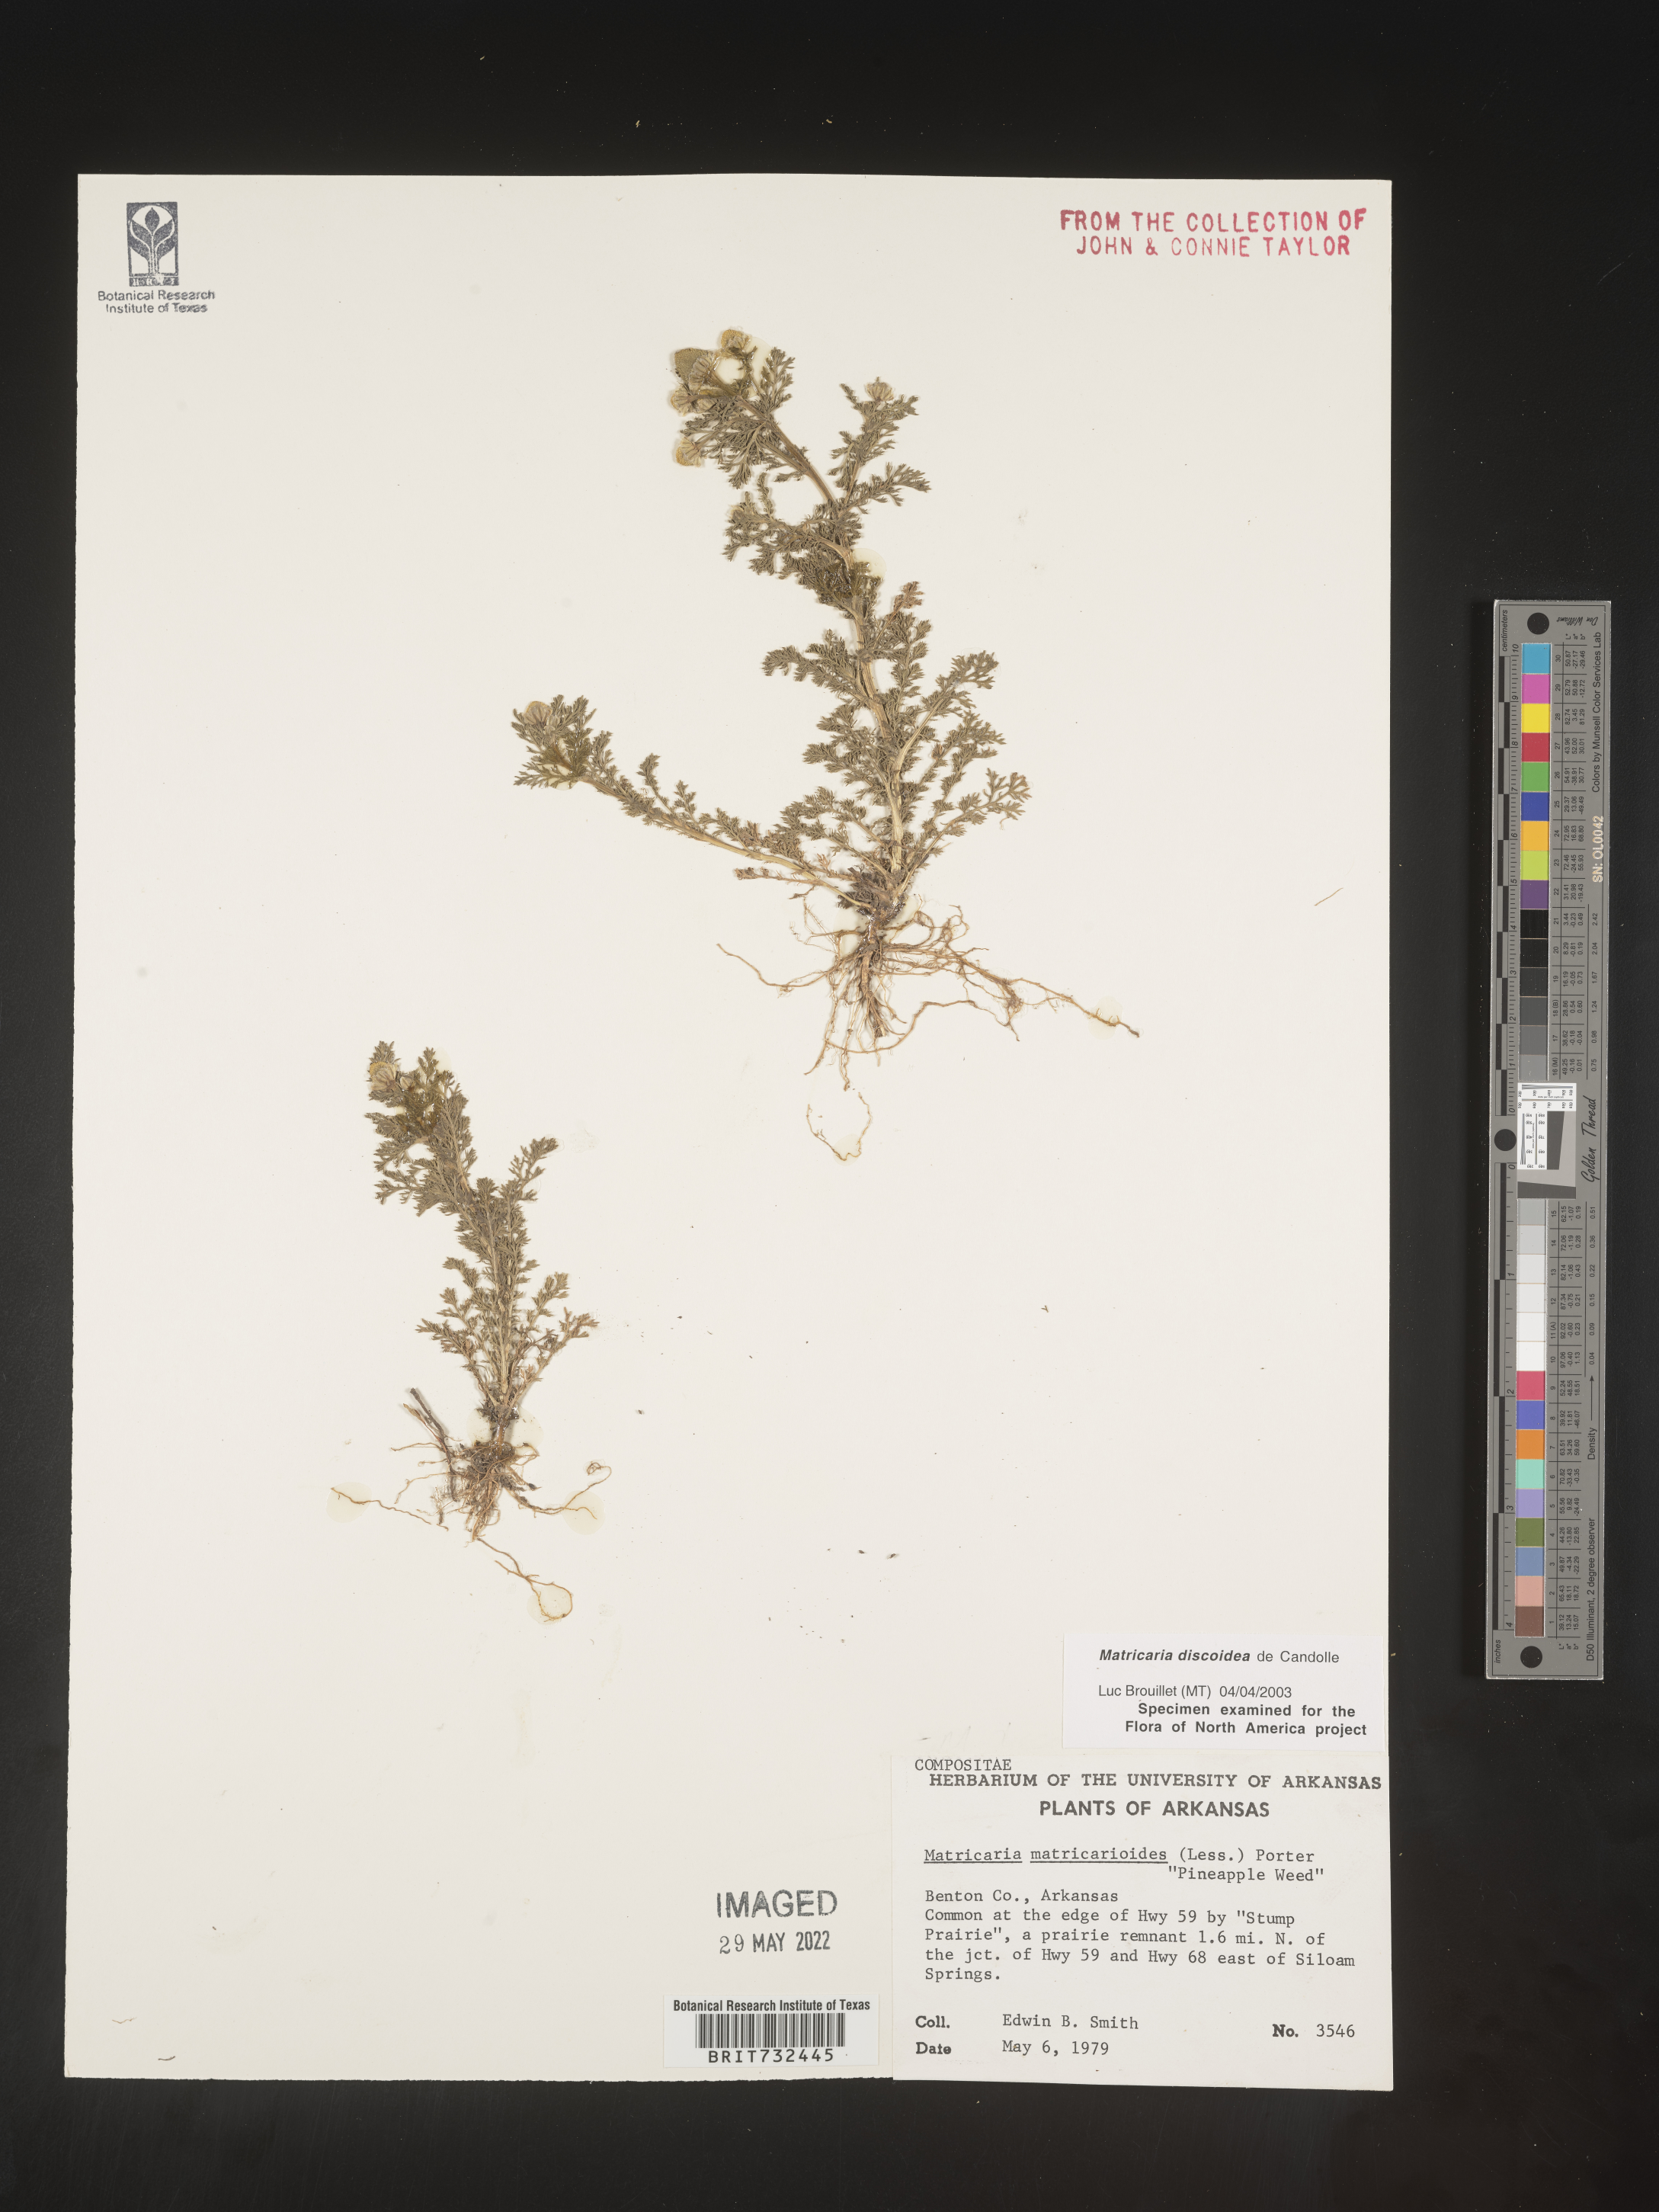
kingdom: Plantae
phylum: Tracheophyta
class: Magnoliopsida
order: Asterales
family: Asteraceae
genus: Matricaria
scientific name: Matricaria discoidea
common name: Disc mayweed
